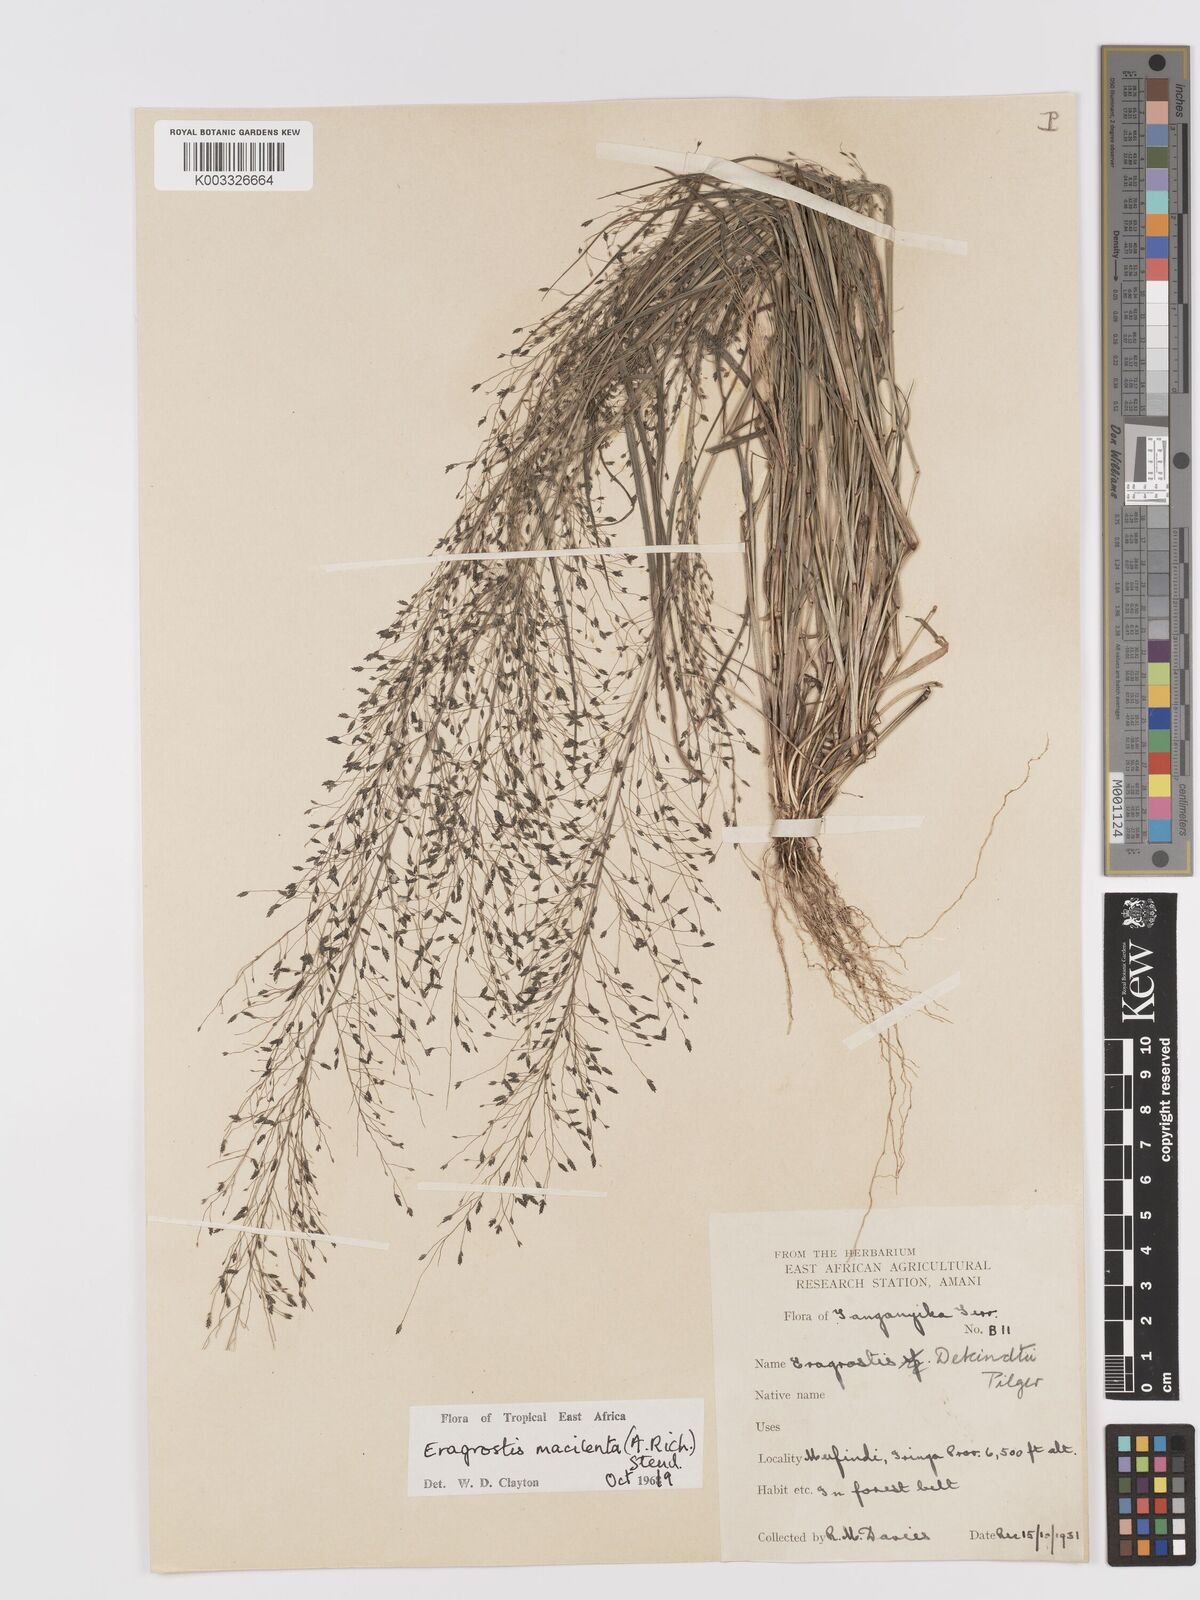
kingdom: Plantae
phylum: Tracheophyta
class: Liliopsida
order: Poales
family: Poaceae
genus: Eragrostis
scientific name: Eragrostis macilenta
